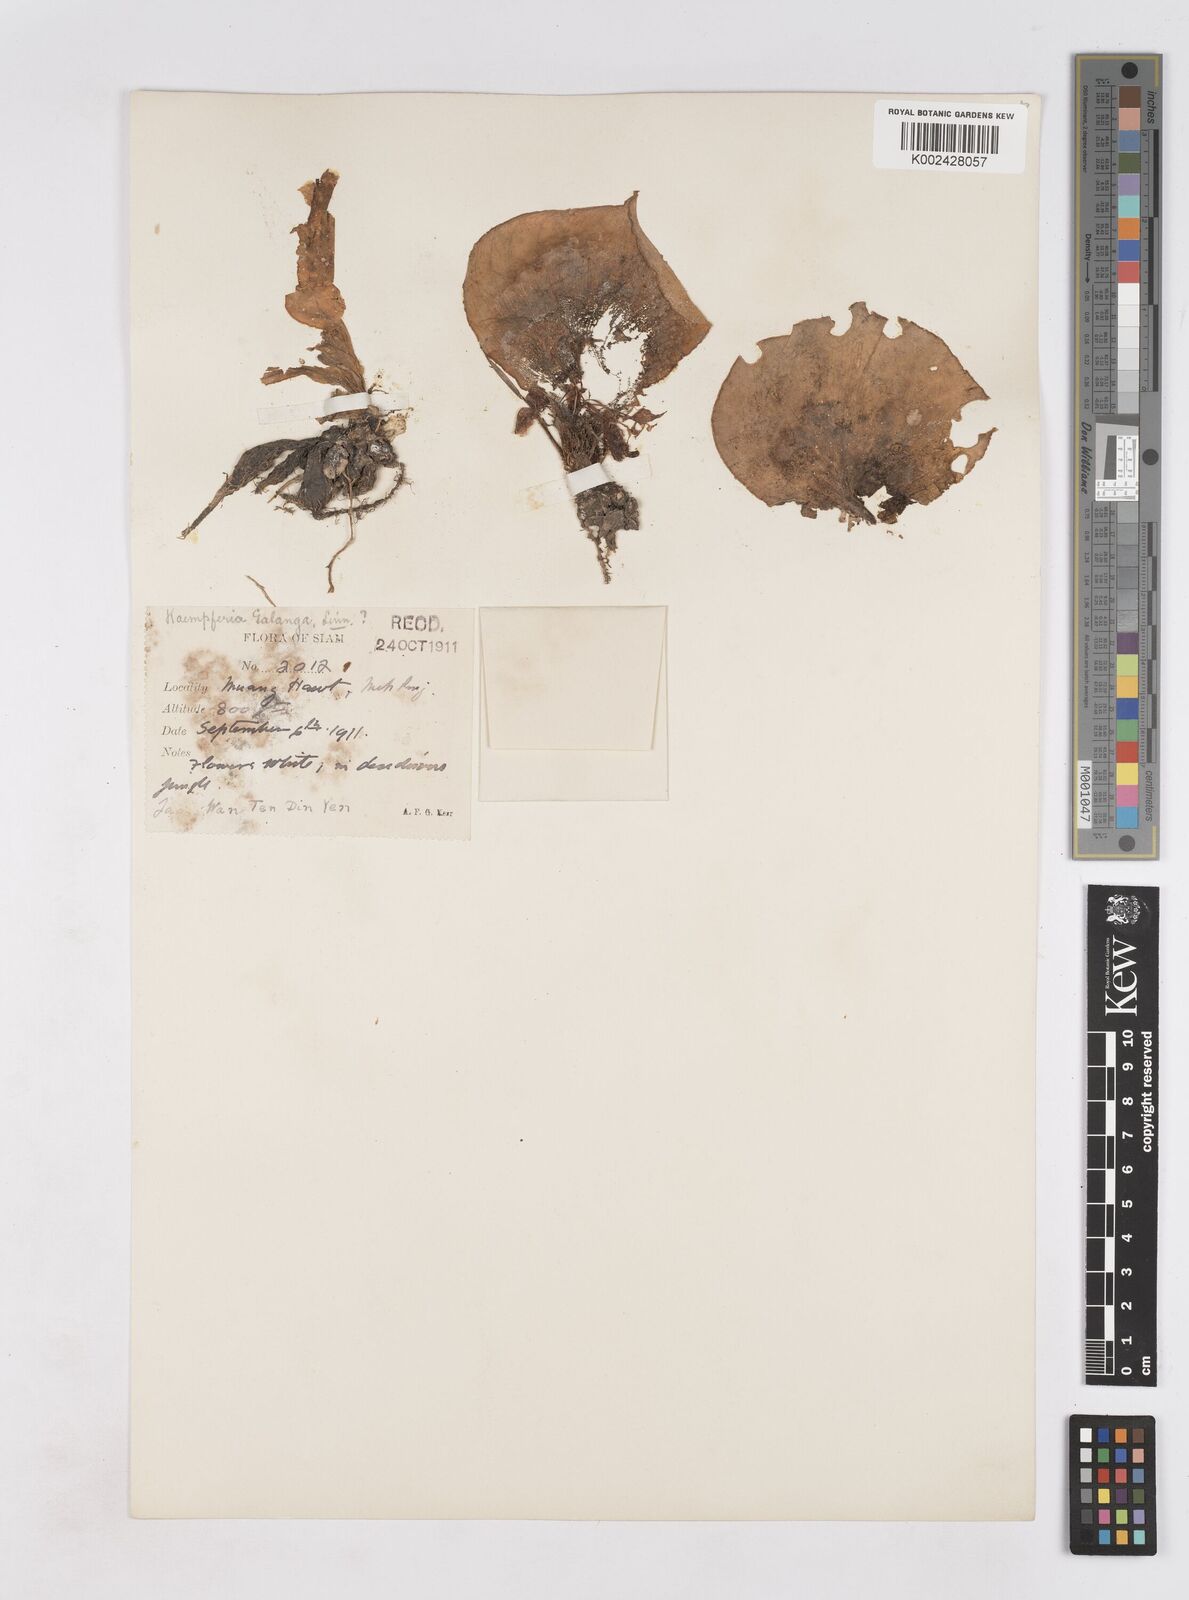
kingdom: Plantae
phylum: Tracheophyta
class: Liliopsida
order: Zingiberales
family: Zingiberaceae
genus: Kaempferia
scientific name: Kaempferia galanga
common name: Aromatic ginger
